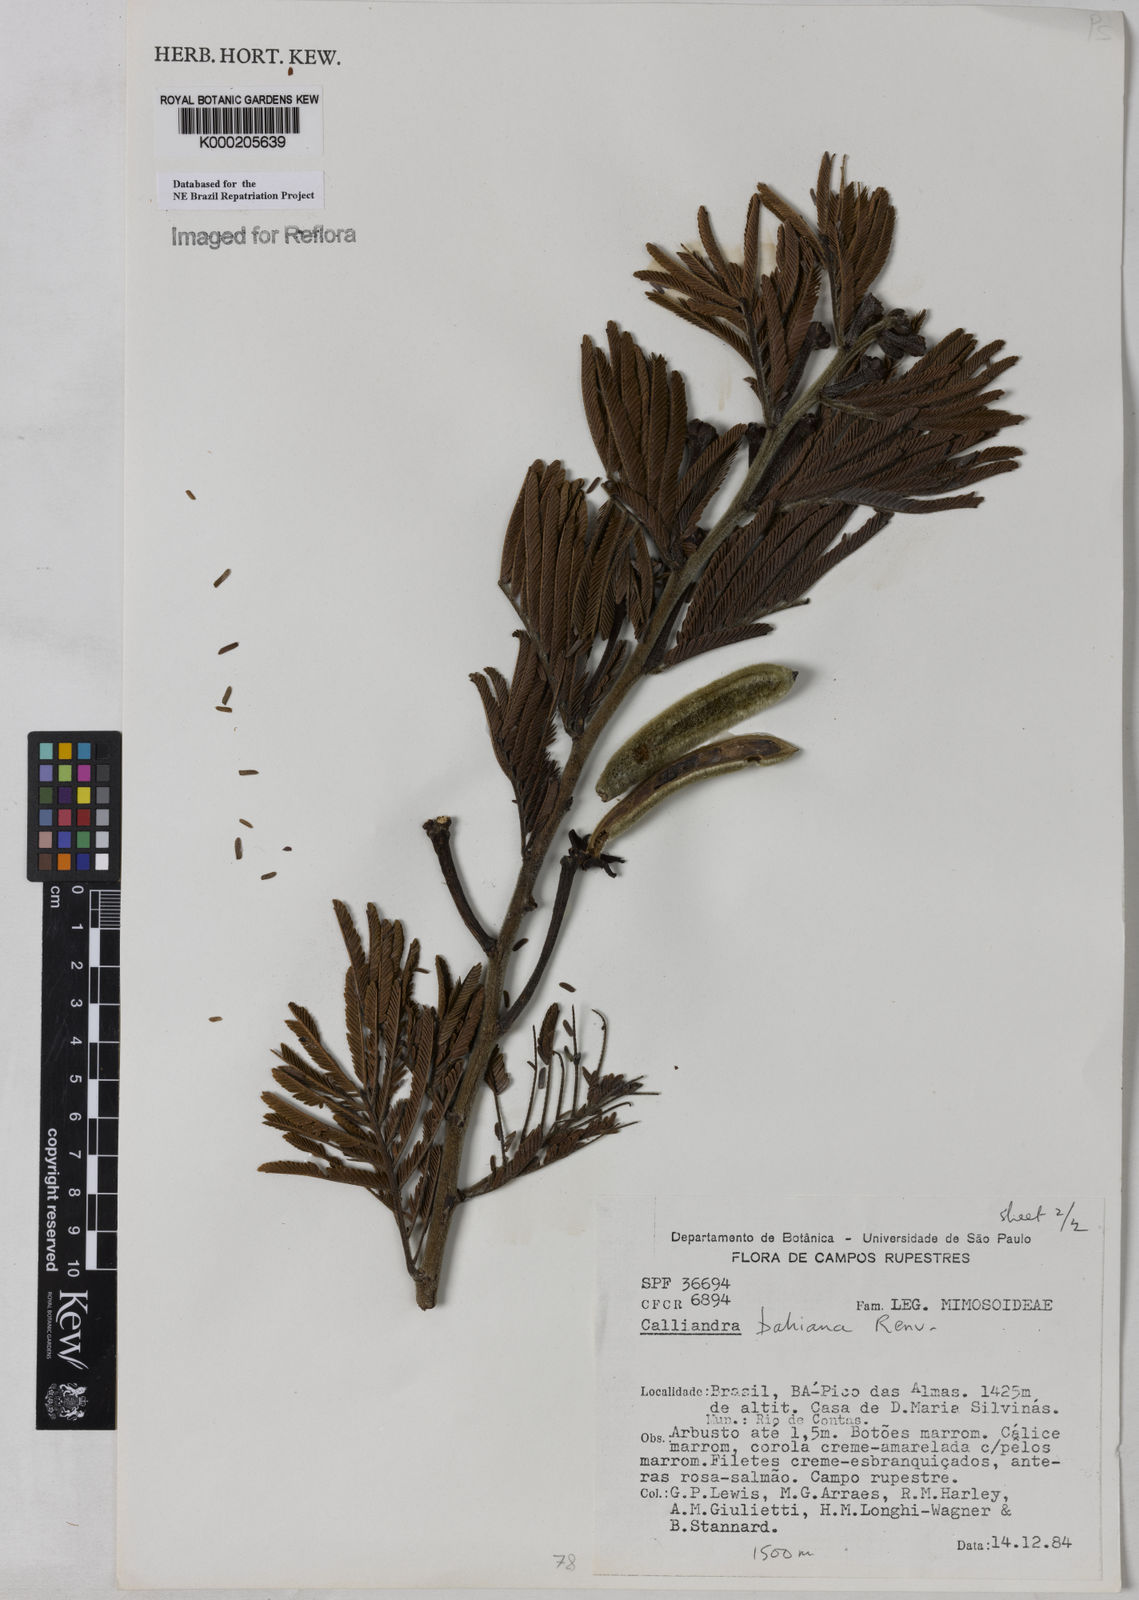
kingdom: Plantae
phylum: Tracheophyta
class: Magnoliopsida
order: Fabales
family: Fabaceae
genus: Calliandra
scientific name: Calliandra bahiana
